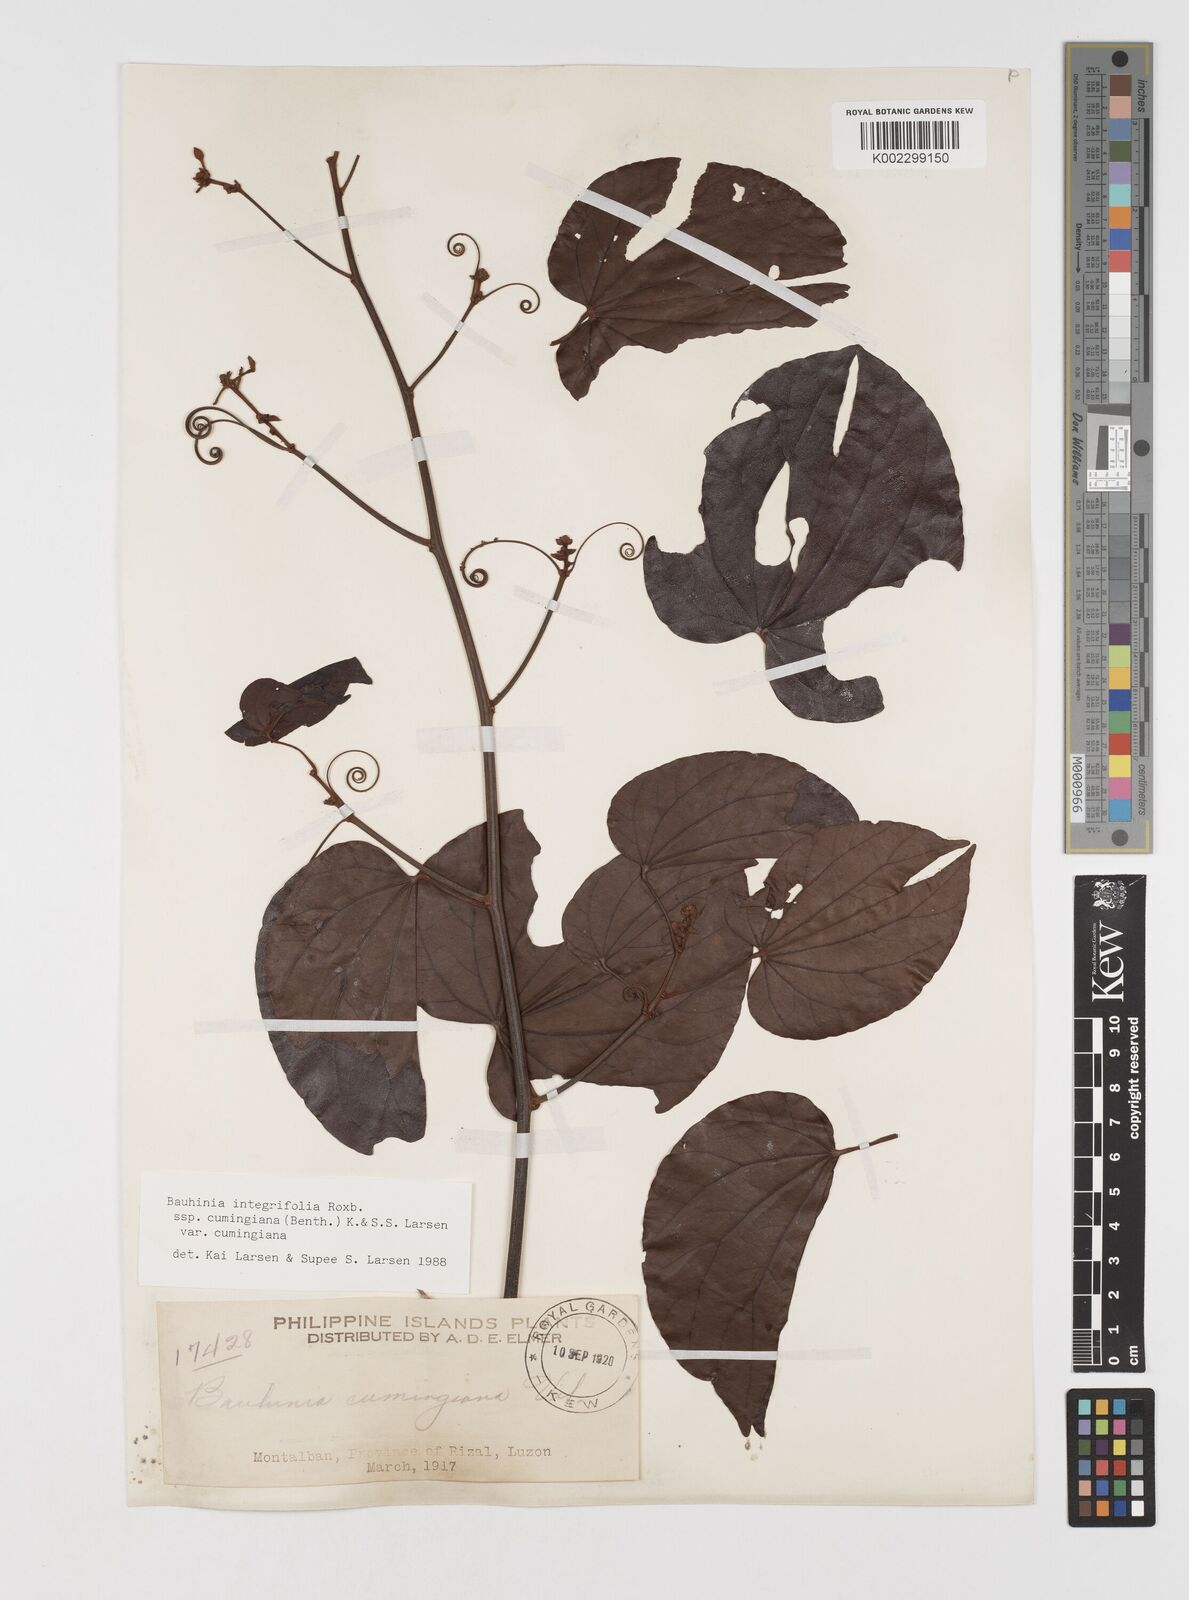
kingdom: Plantae
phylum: Tracheophyta
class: Magnoliopsida
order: Fabales
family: Fabaceae
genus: Phanera
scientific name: Phanera integrifolia
